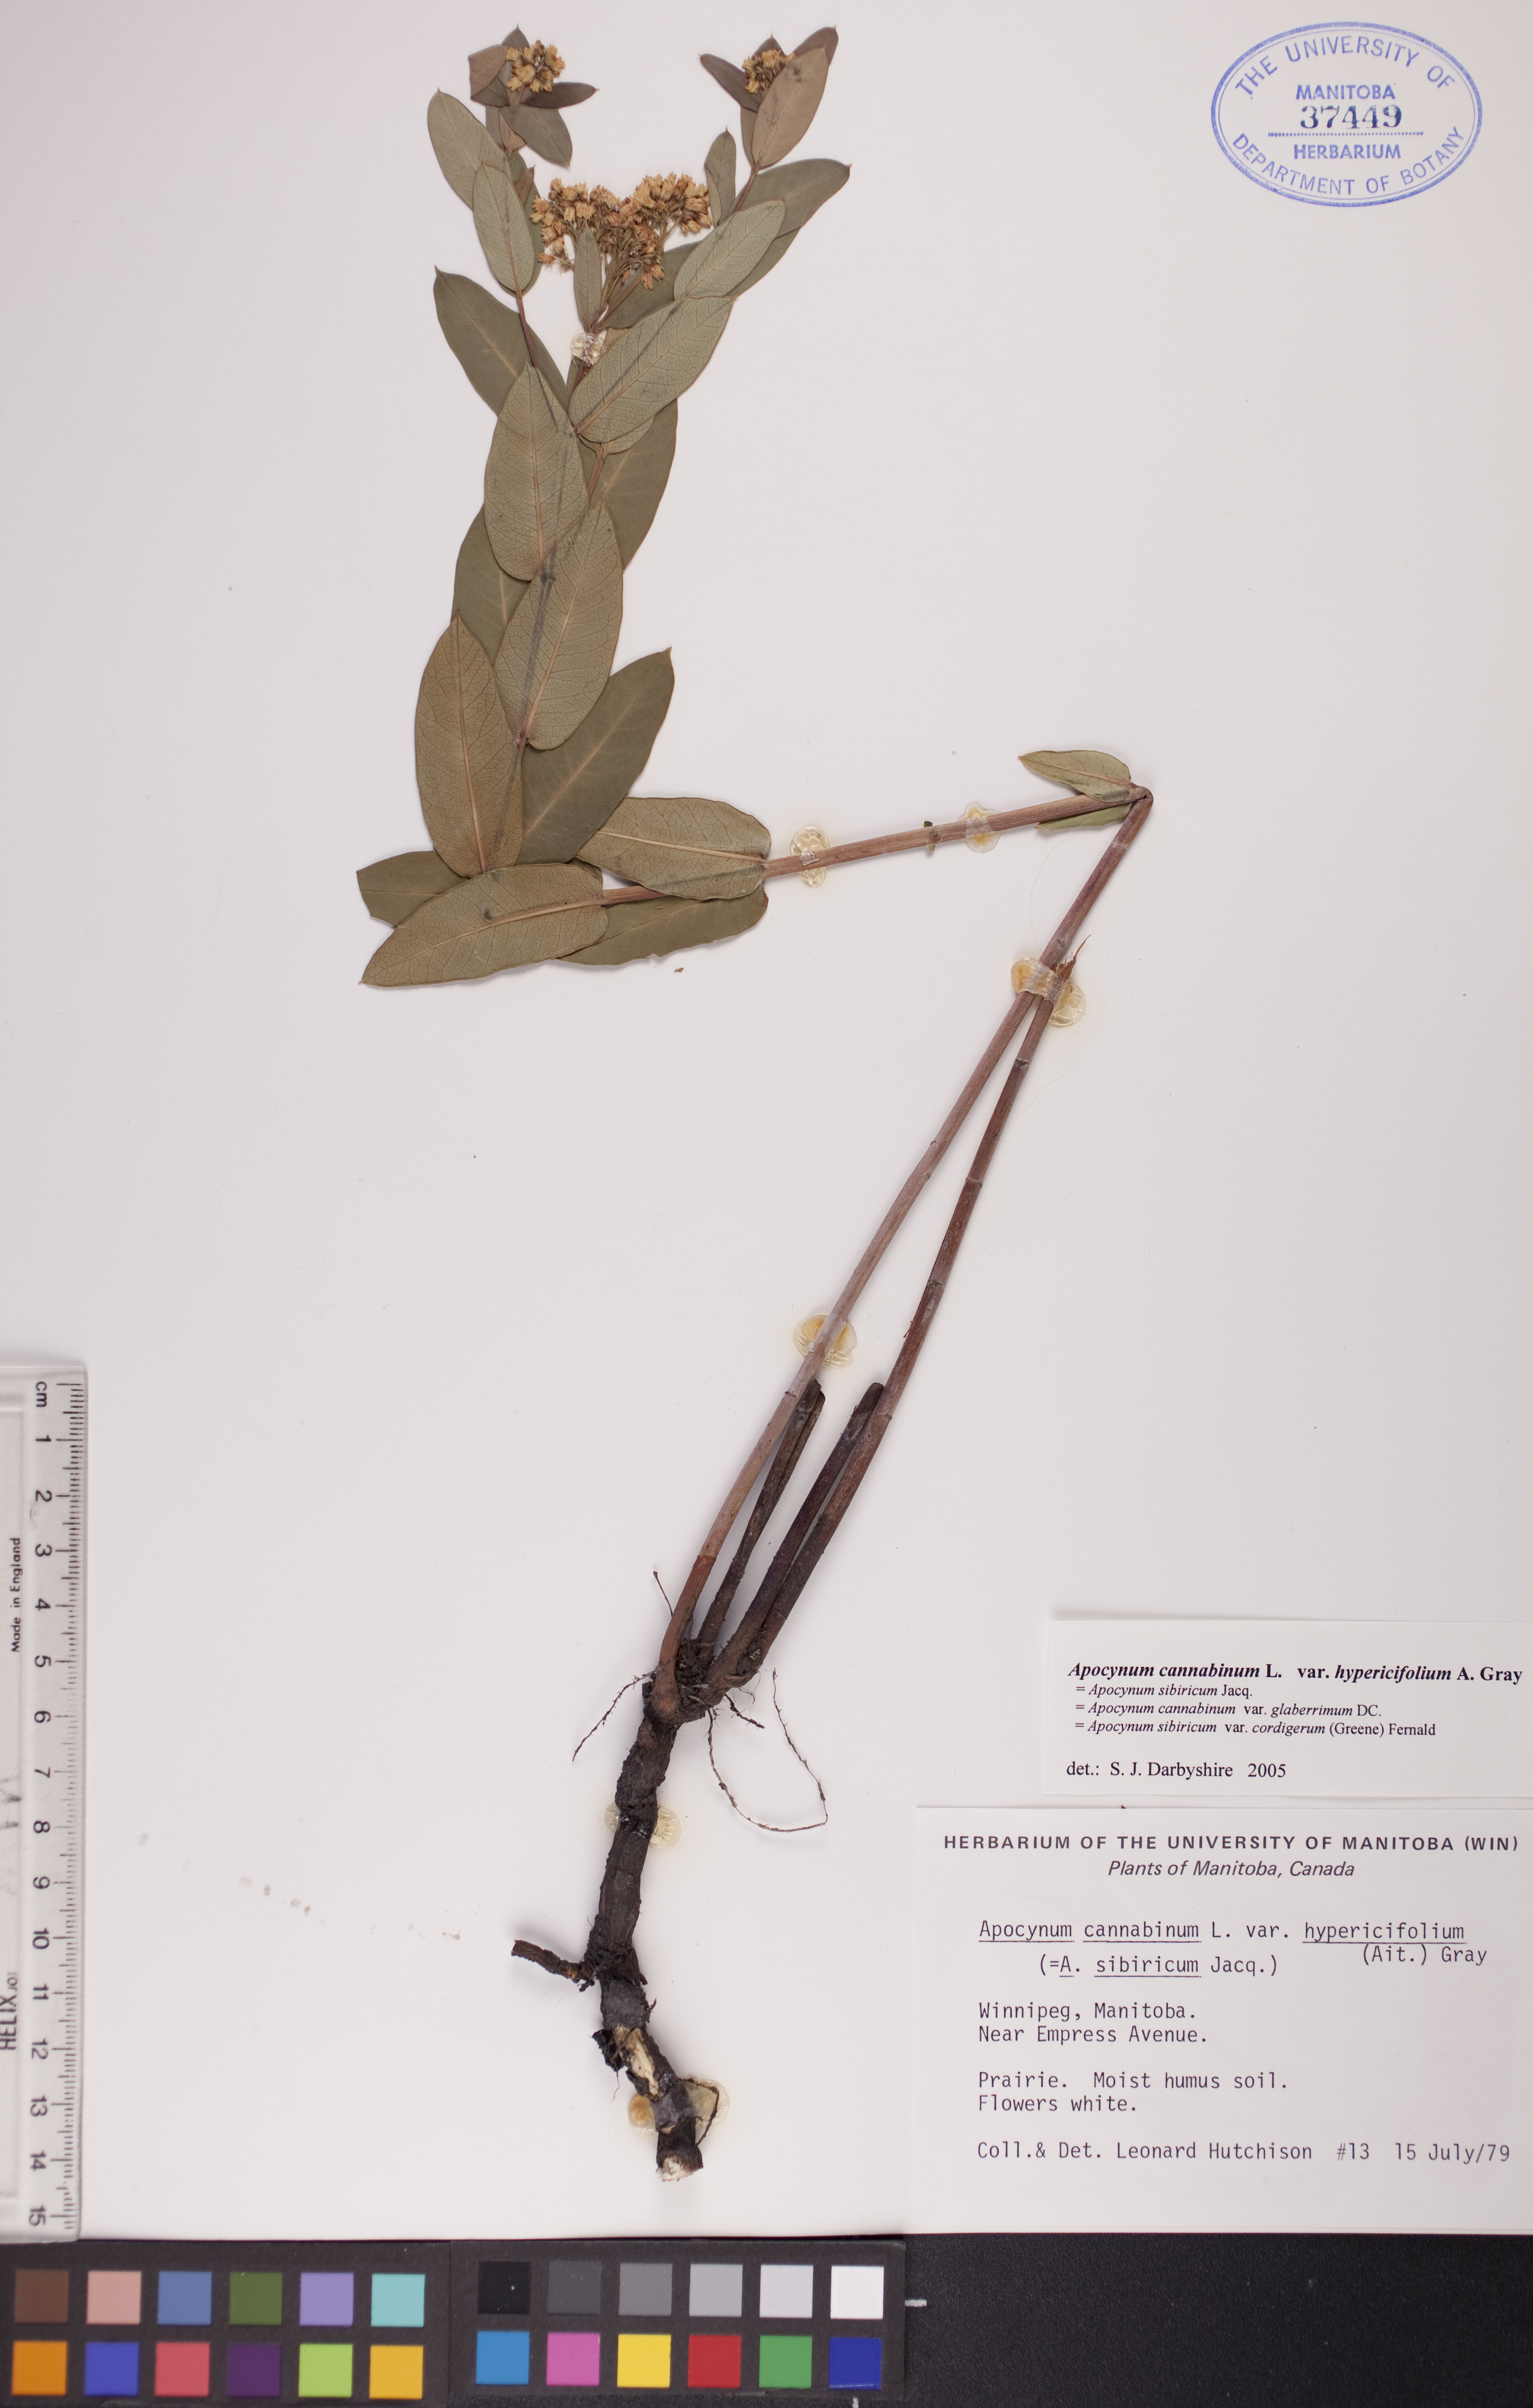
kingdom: Plantae
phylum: Tracheophyta
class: Magnoliopsida
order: Gentianales
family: Apocynaceae
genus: Apocynum
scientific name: Apocynum cannabinum
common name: Hemp dogbane
